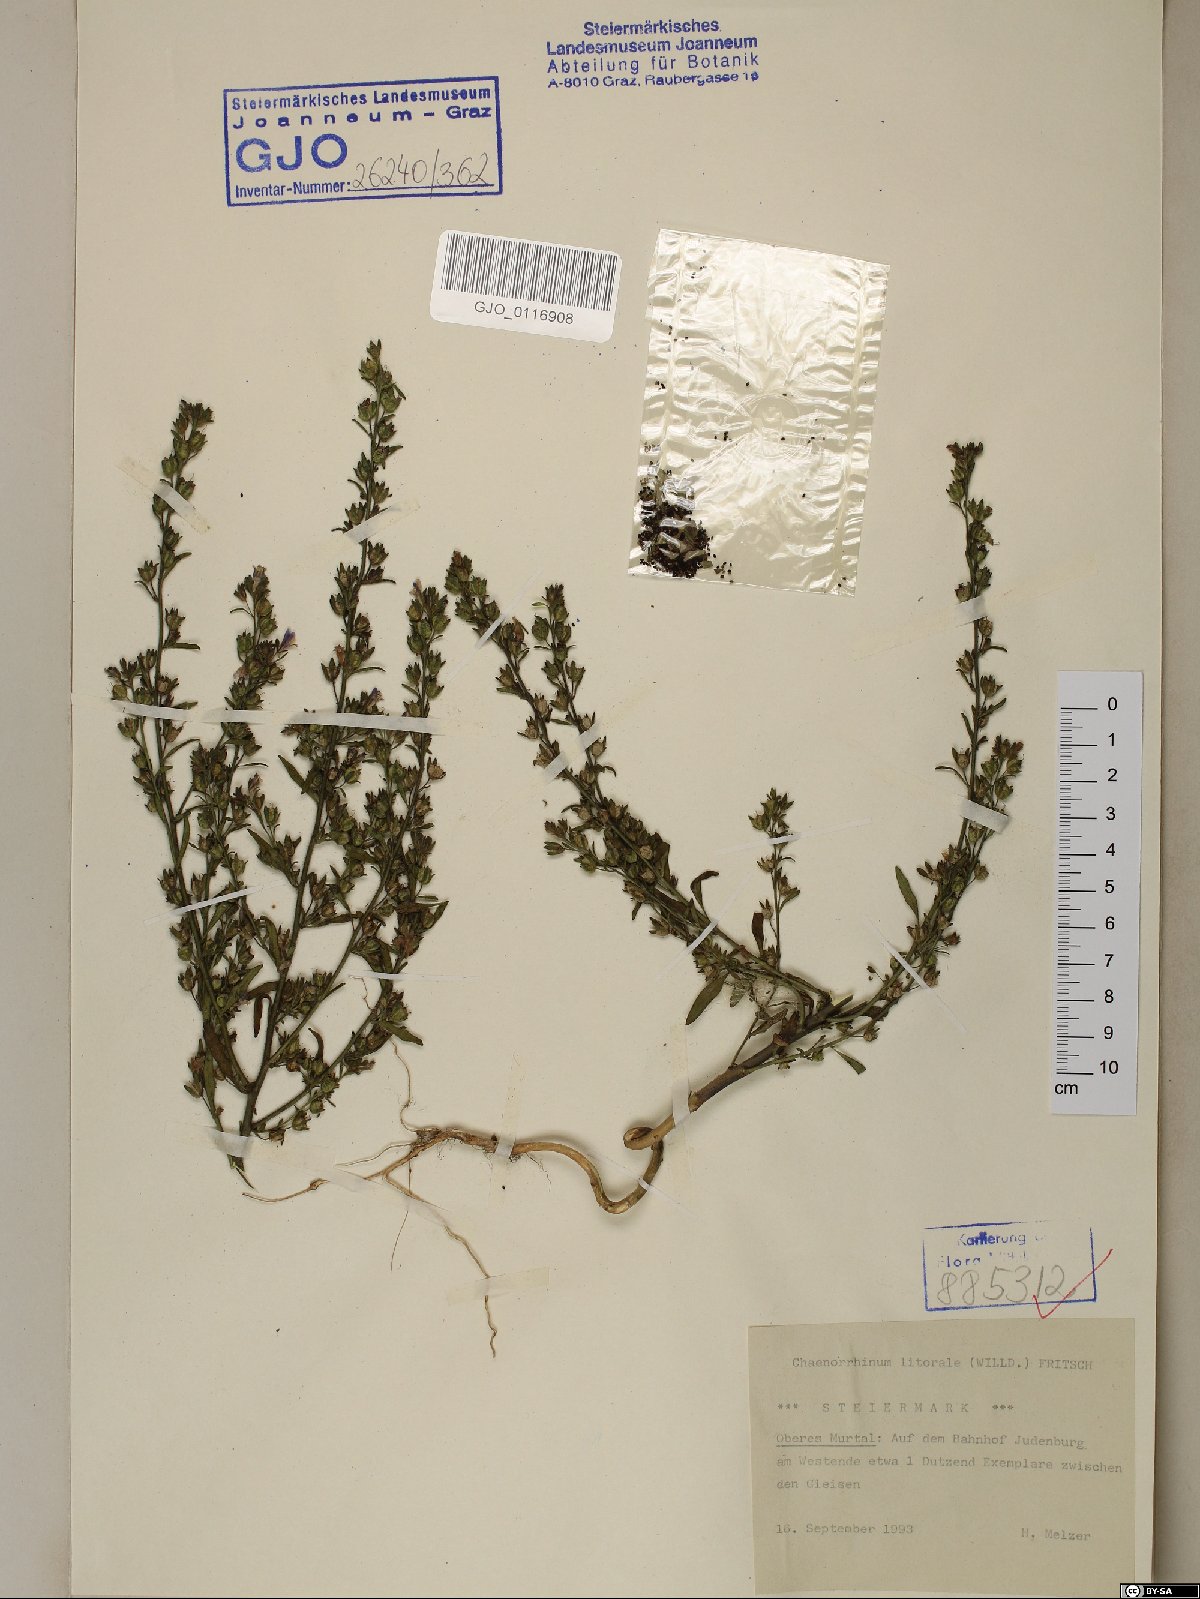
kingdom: Plantae
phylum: Tracheophyta
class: Magnoliopsida
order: Lamiales
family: Plantaginaceae
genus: Chaenorhinum
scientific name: Chaenorhinum litorale
